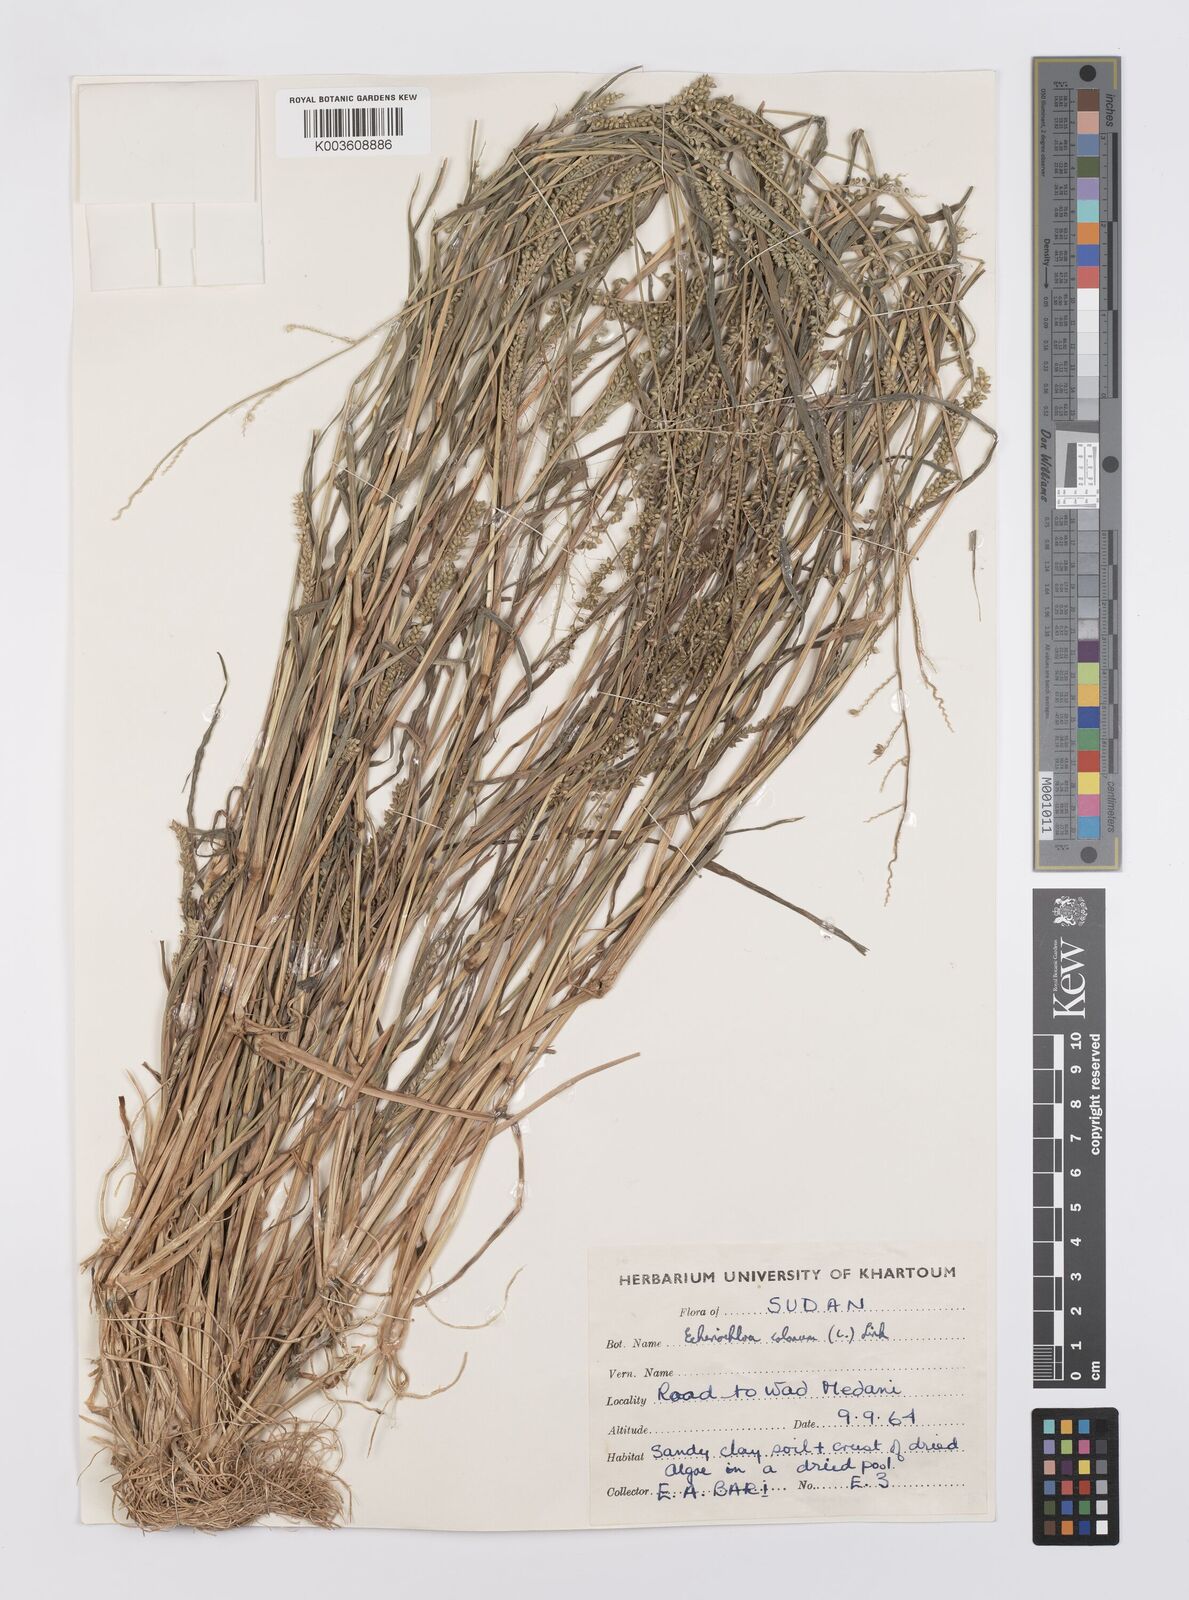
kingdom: Plantae
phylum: Tracheophyta
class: Liliopsida
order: Poales
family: Poaceae
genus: Echinochloa
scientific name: Echinochloa colonum
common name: Jungle rice
